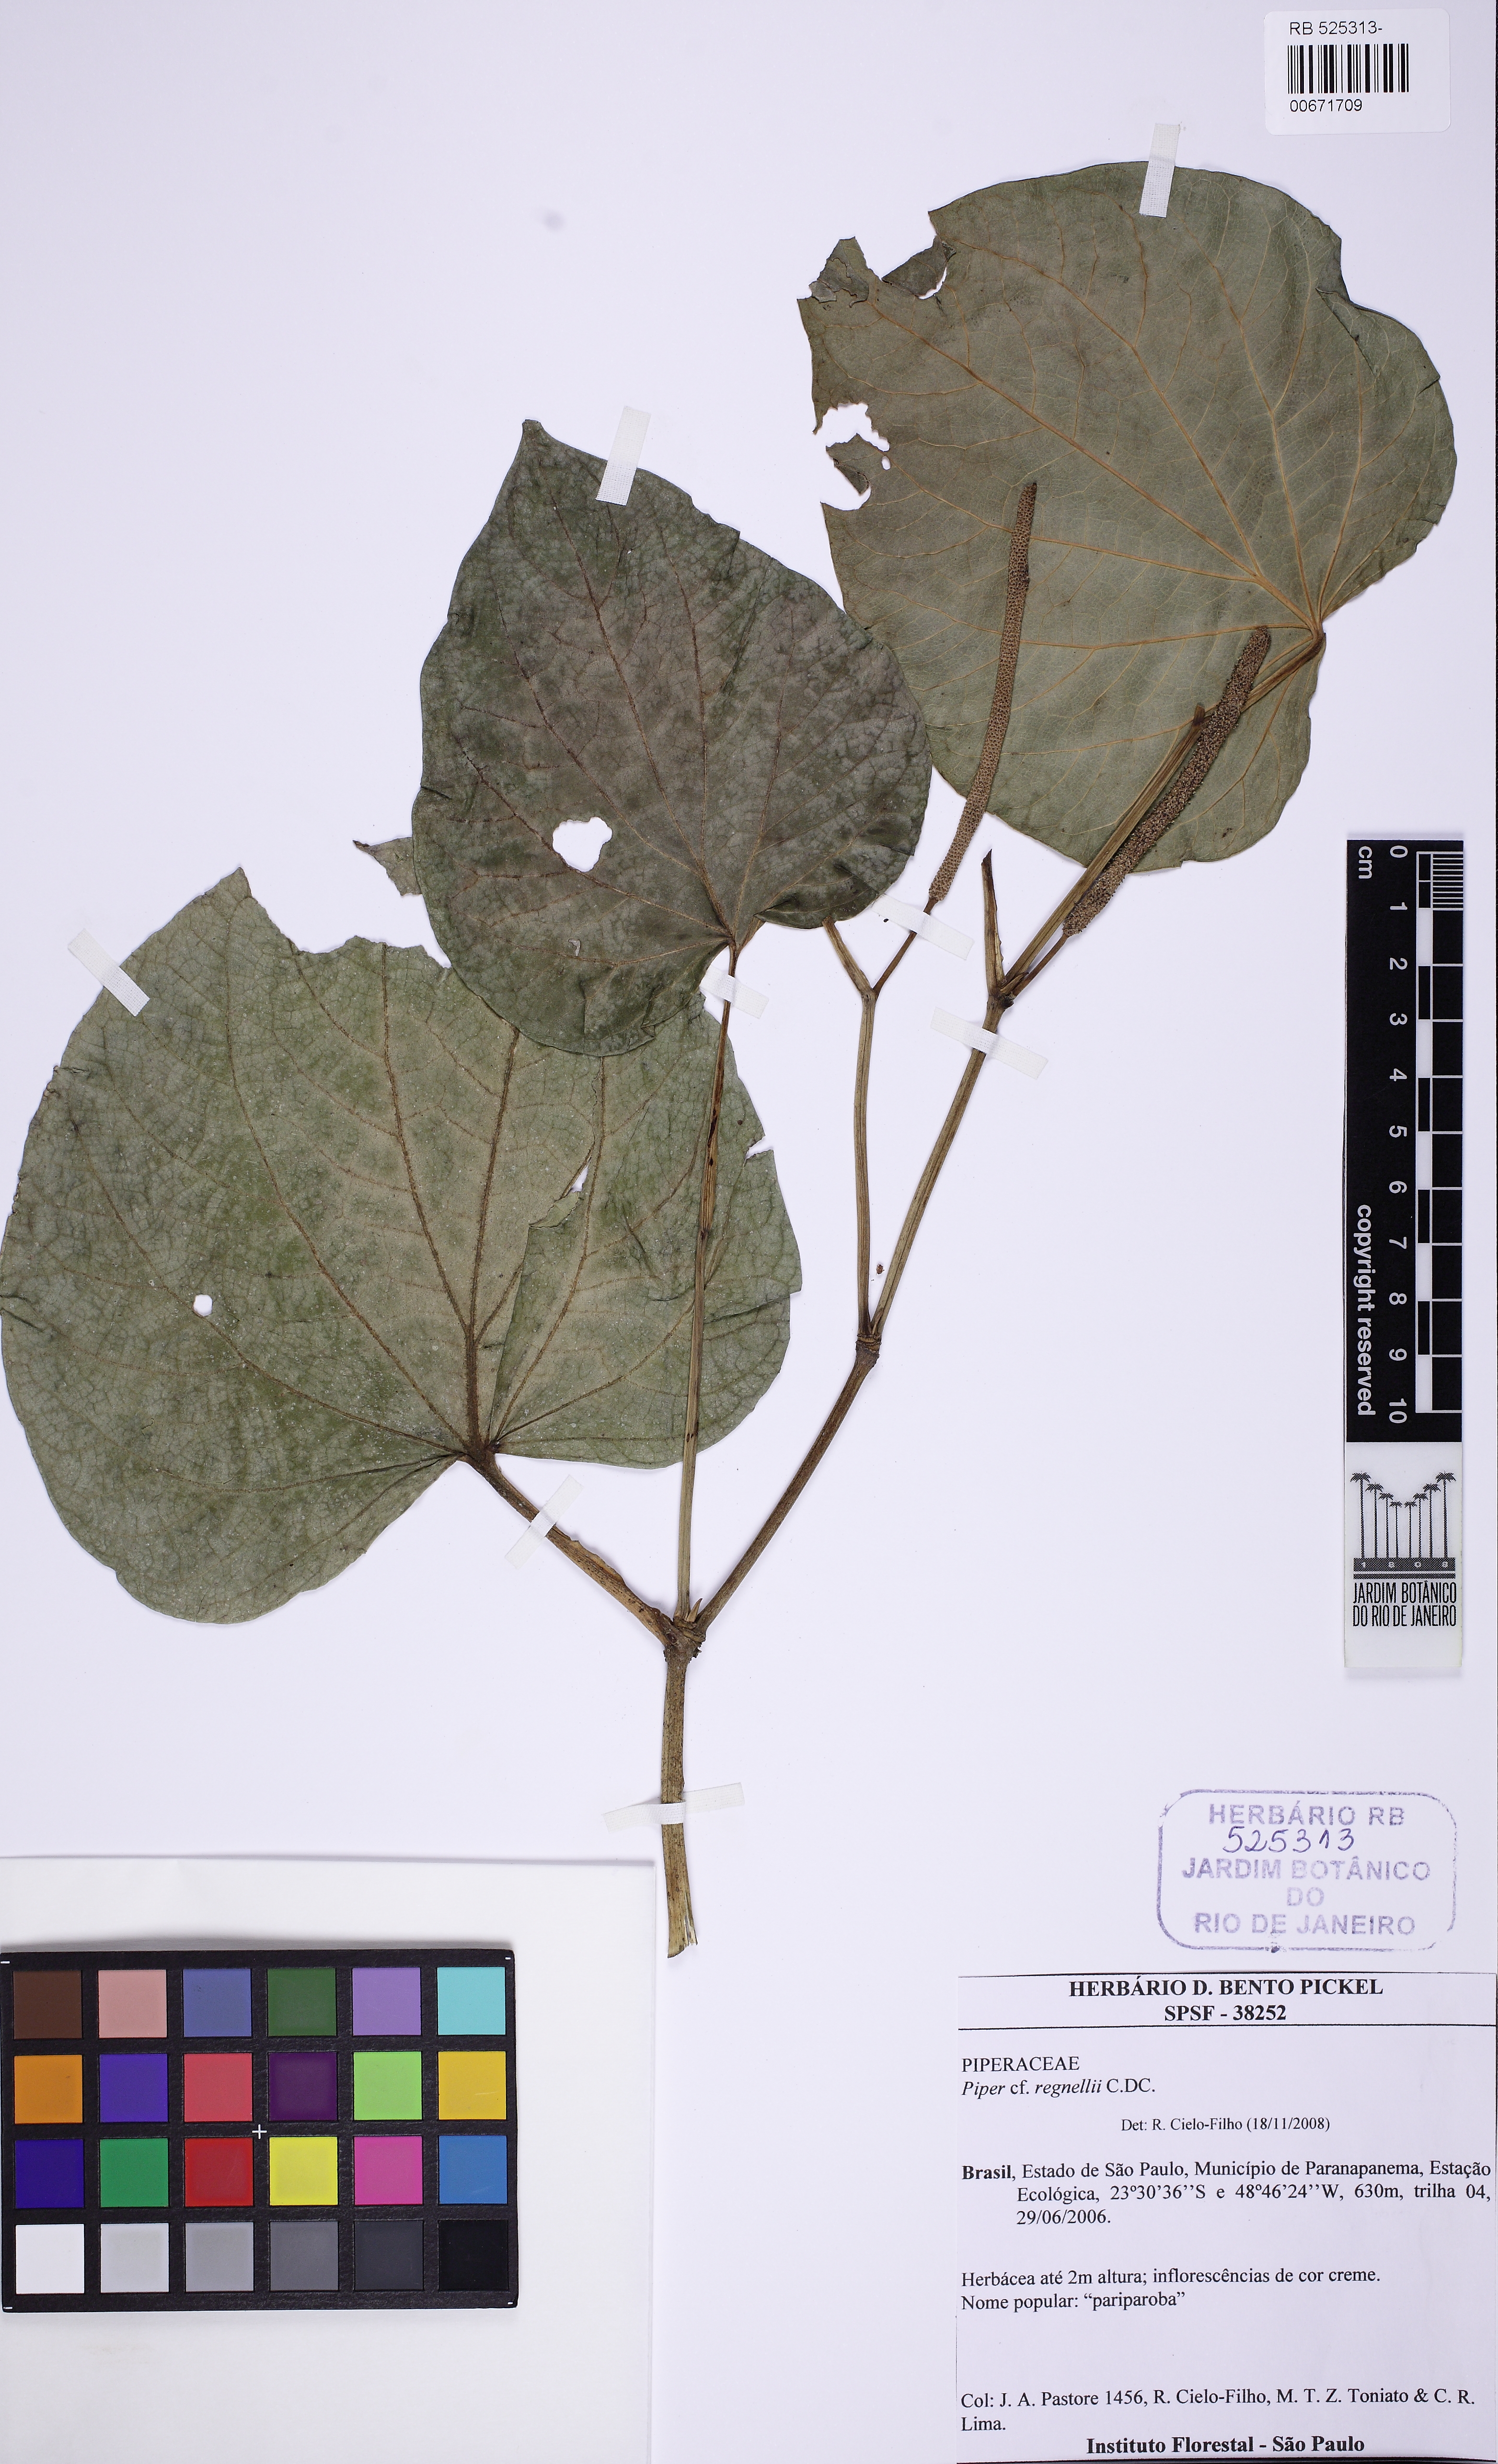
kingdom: Plantae
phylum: Tracheophyta
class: Magnoliopsida
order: Piperales
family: Piperaceae
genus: Piper
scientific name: Piper regnellii
